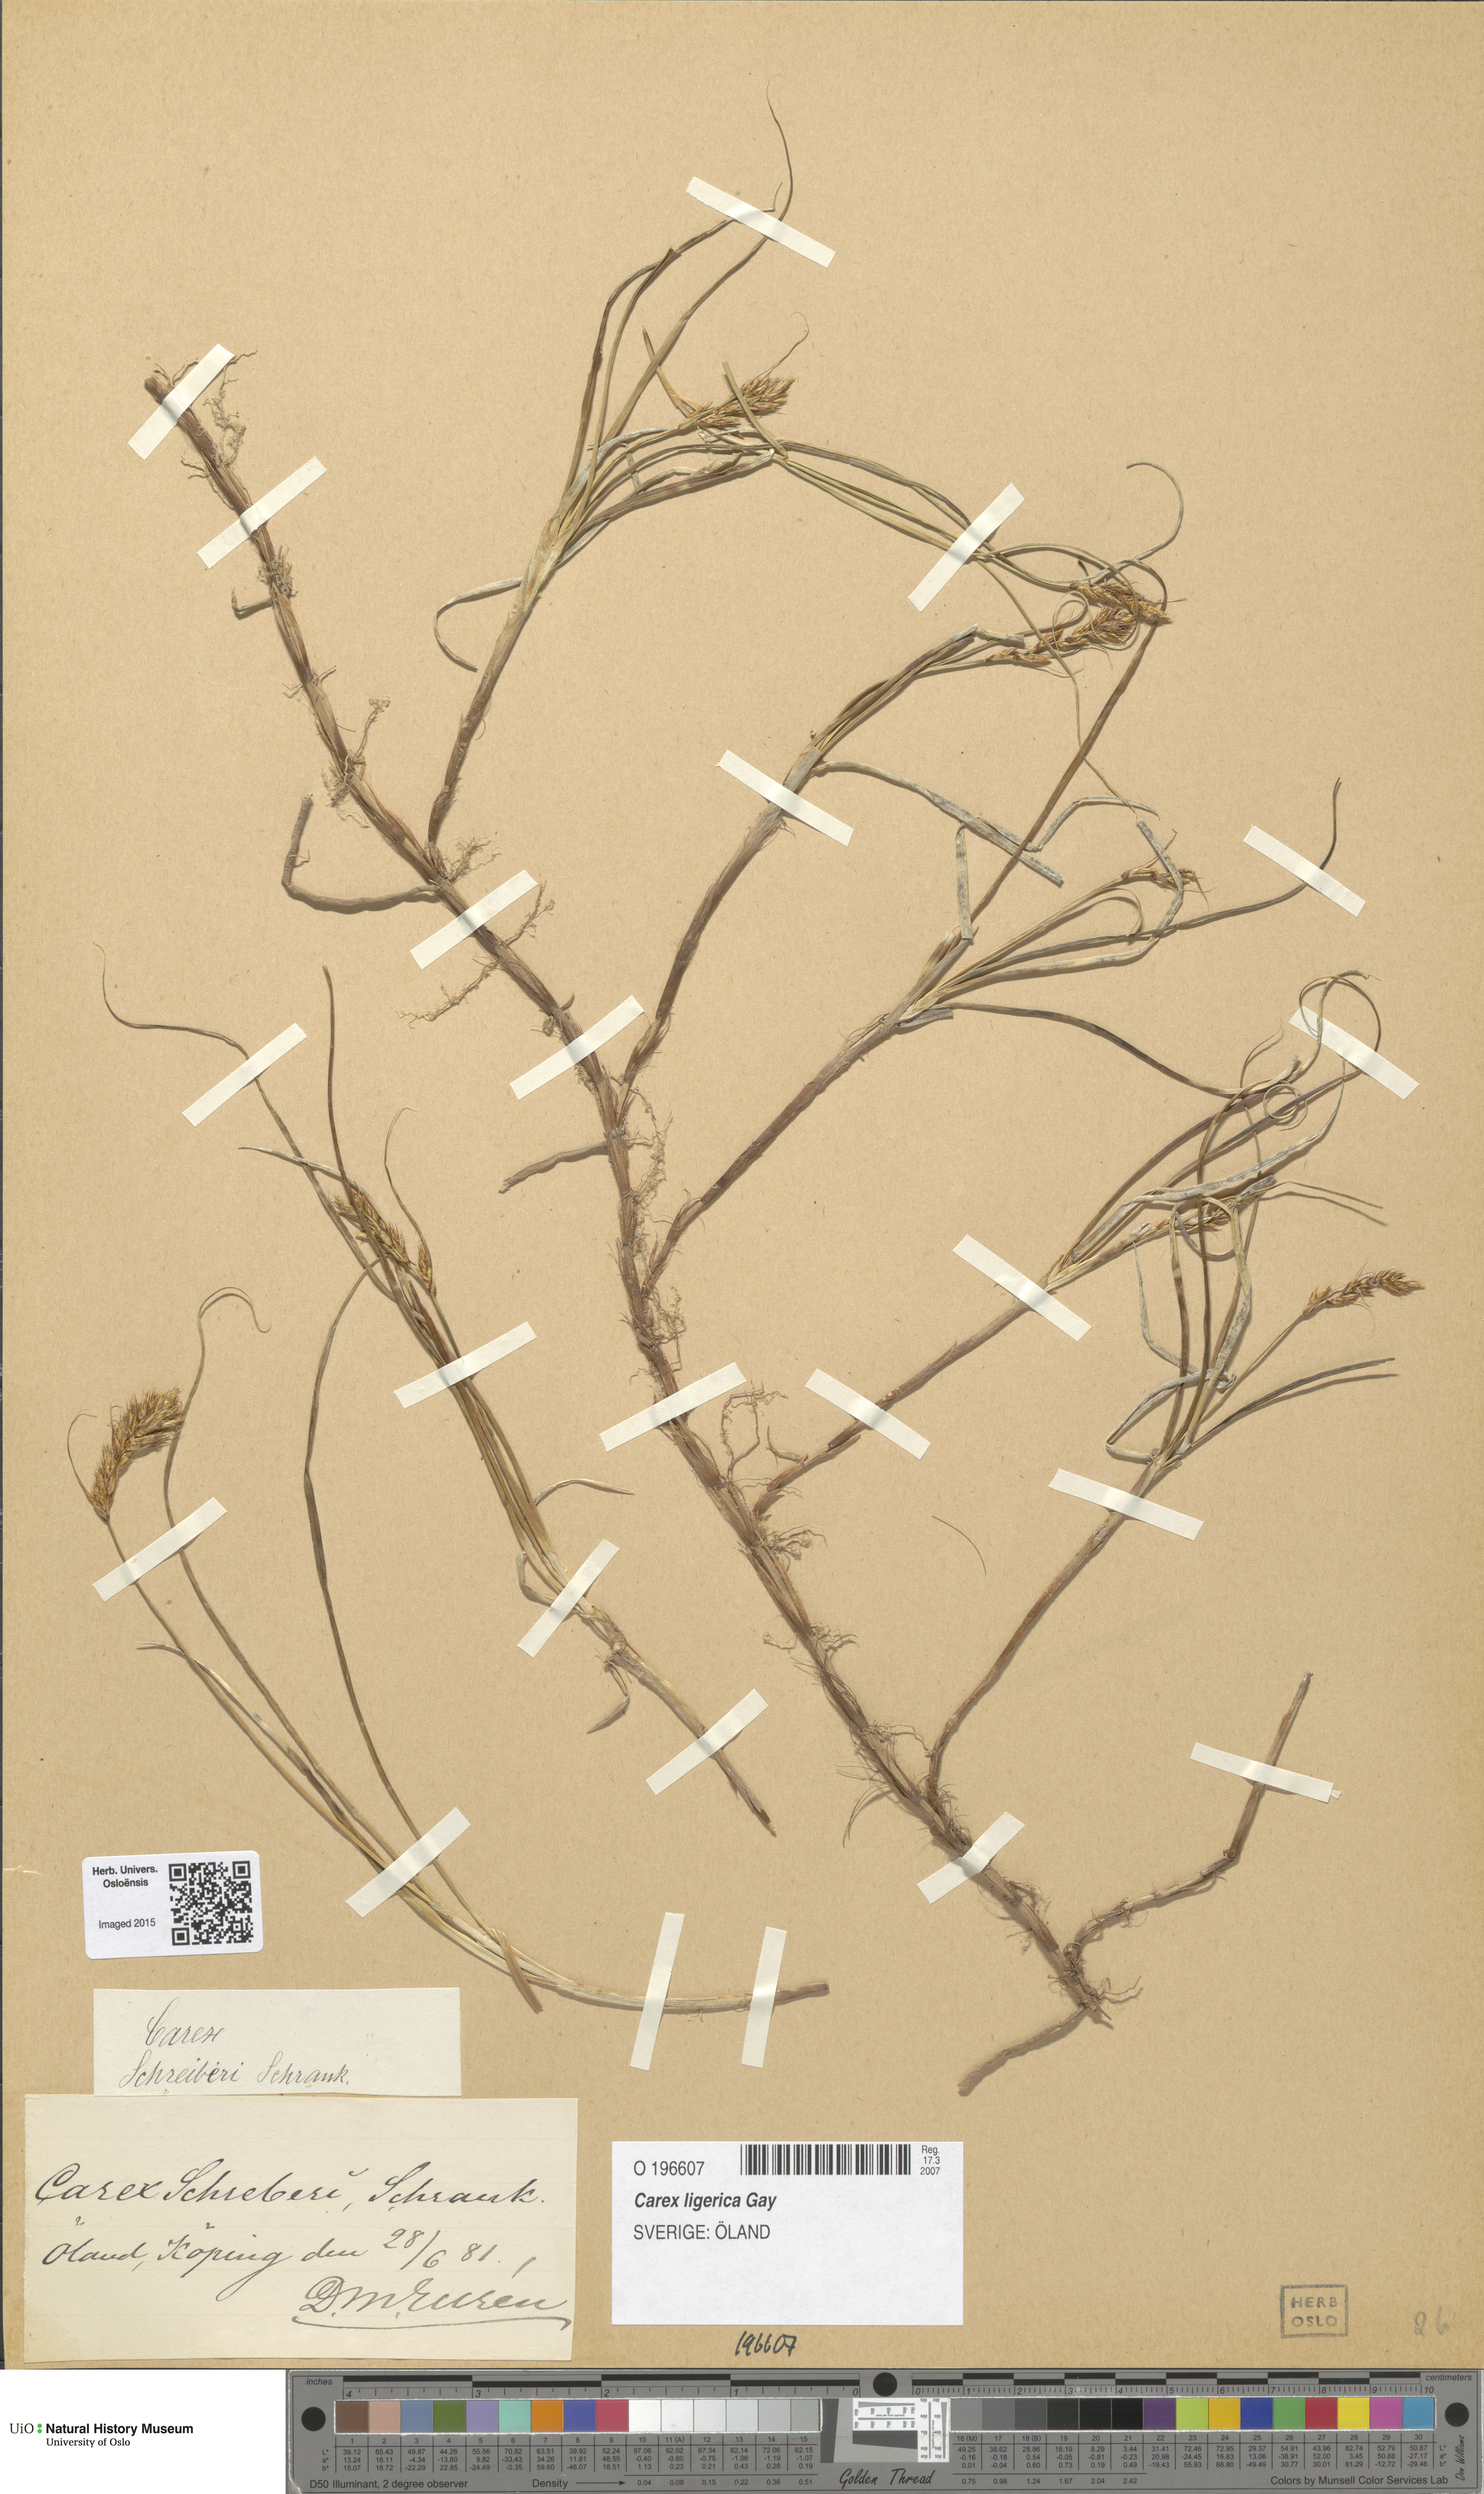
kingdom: Plantae
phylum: Tracheophyta
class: Liliopsida
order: Poales
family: Cyperaceae
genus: Carex
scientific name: Carex colchica
